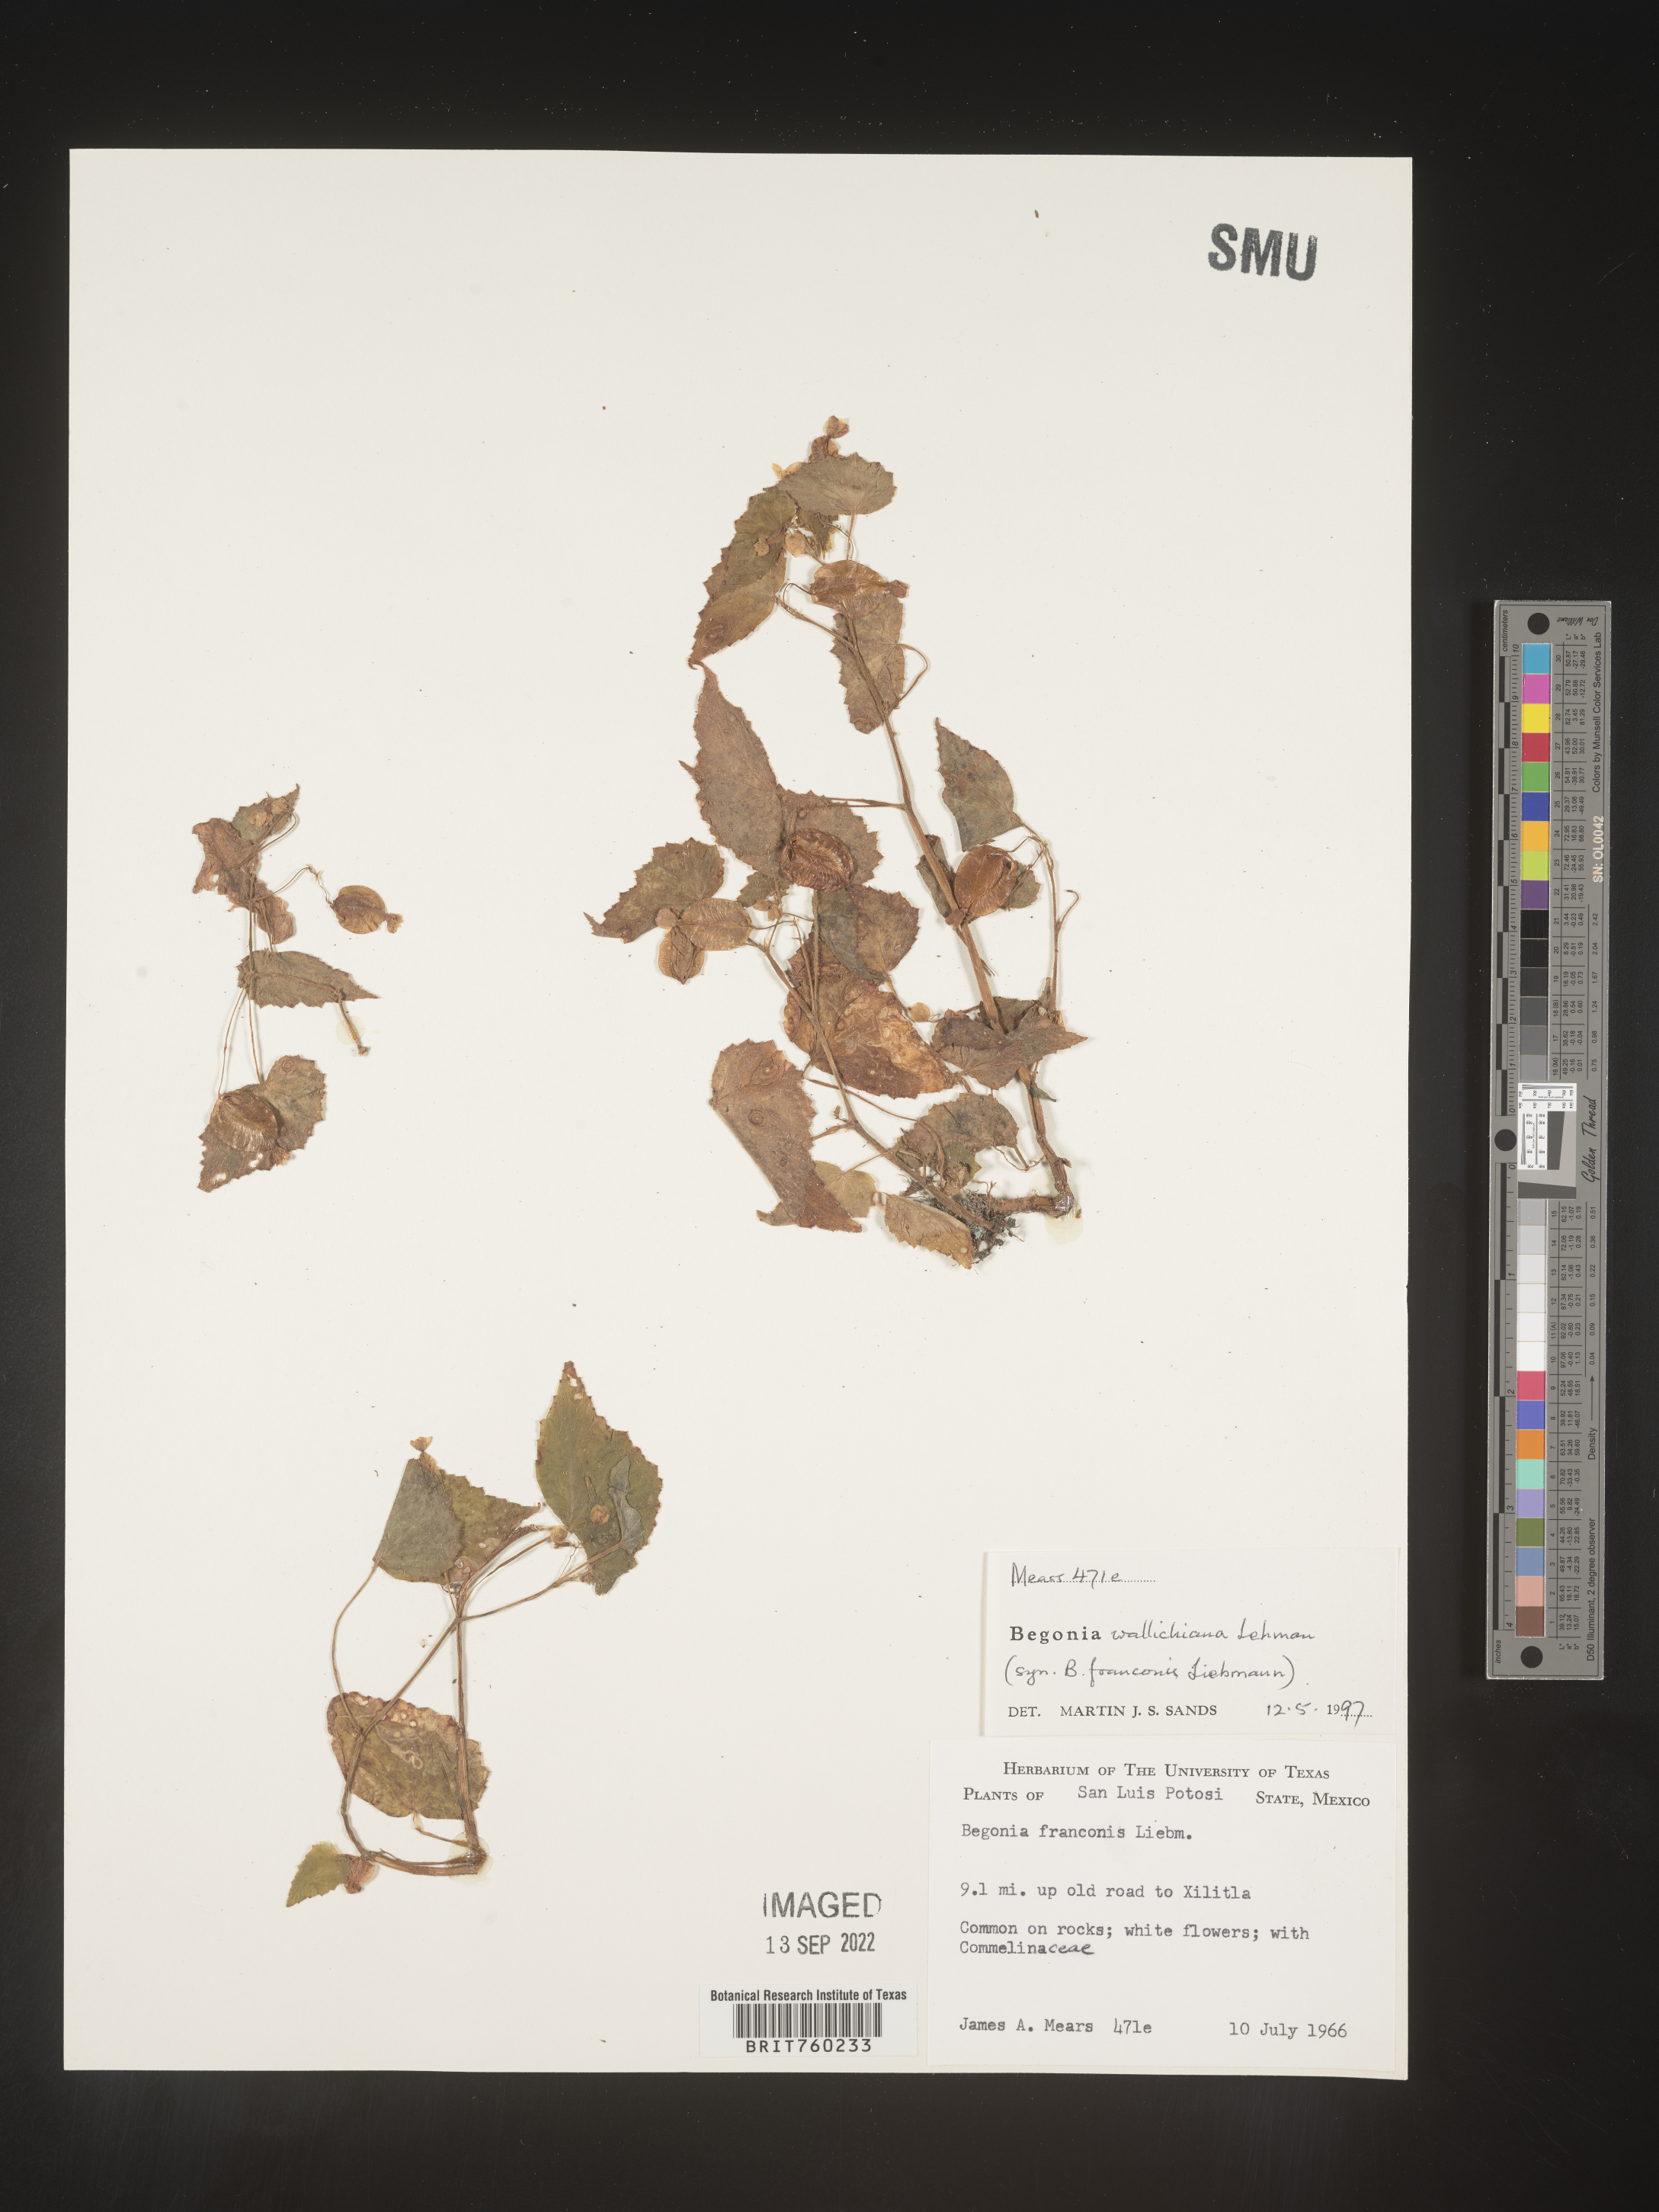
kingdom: Plantae
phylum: Tracheophyta
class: Magnoliopsida
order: Cucurbitales
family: Begoniaceae
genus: Begonia
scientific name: Begonia
